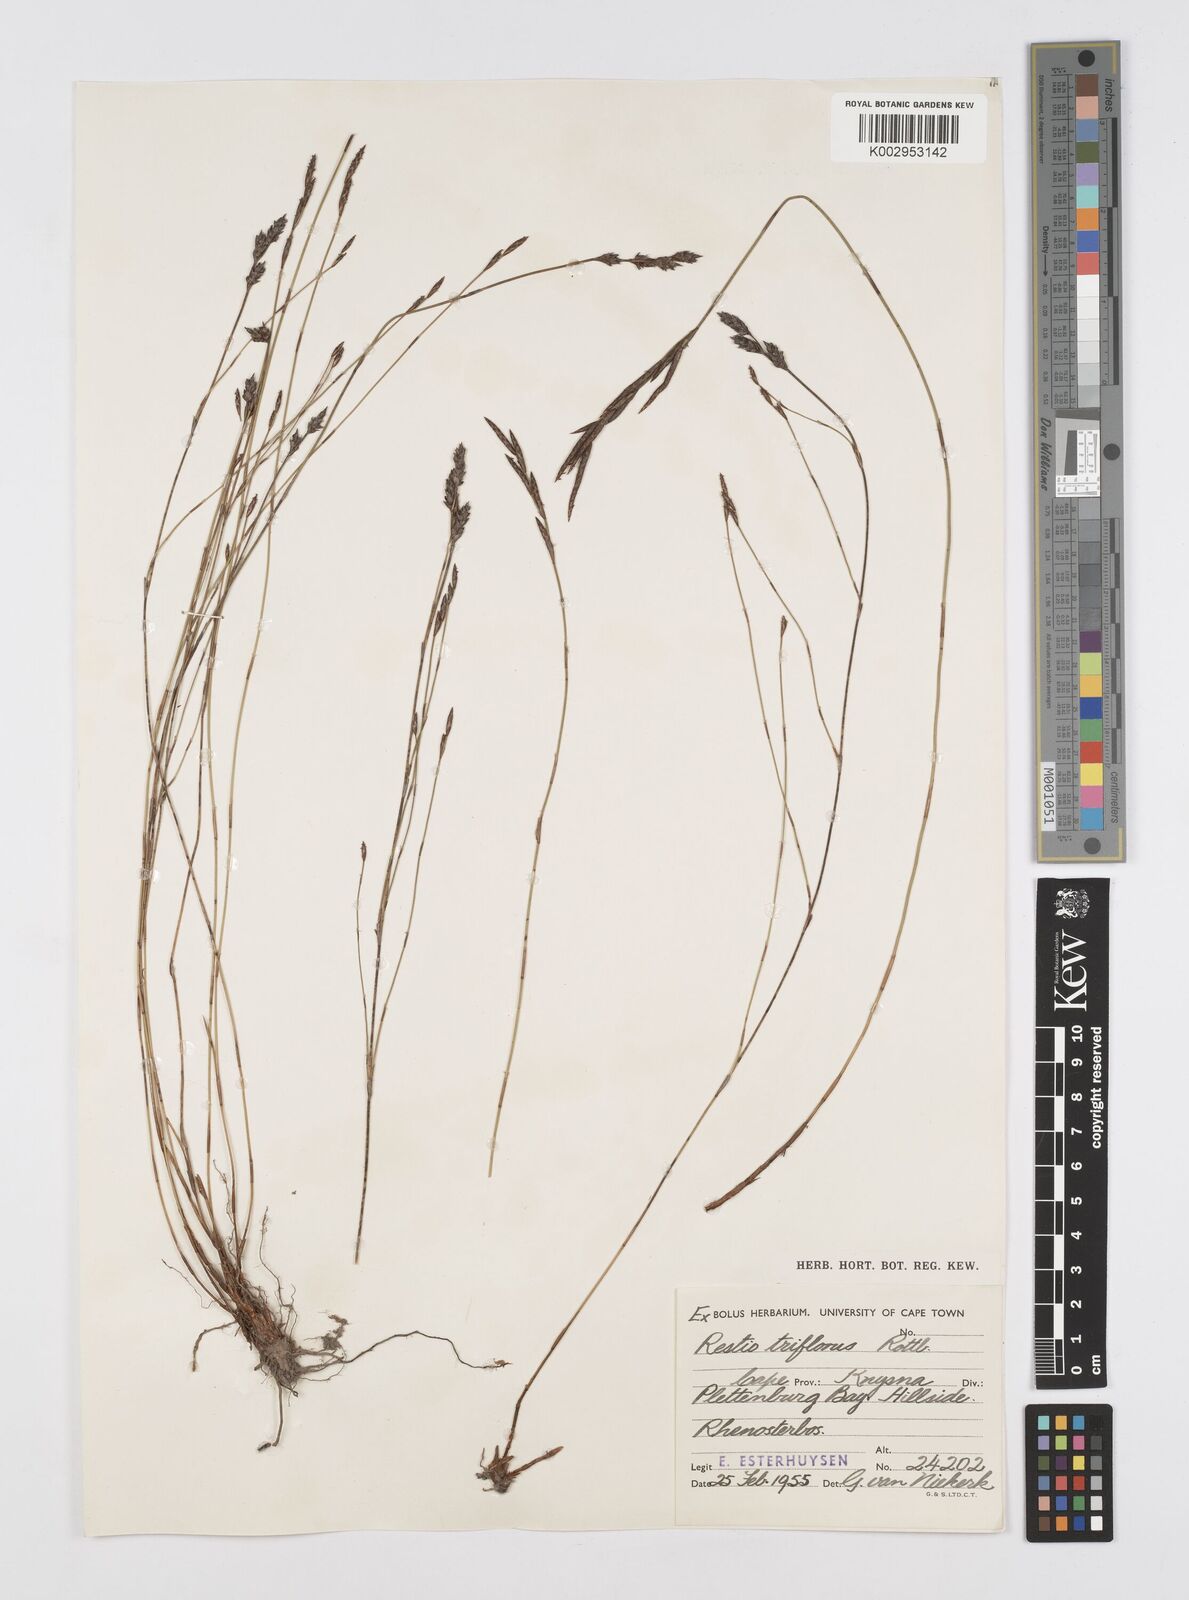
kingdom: Plantae
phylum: Tracheophyta
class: Liliopsida
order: Poales
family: Restionaceae
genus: Restio
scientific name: Restio triflorus
